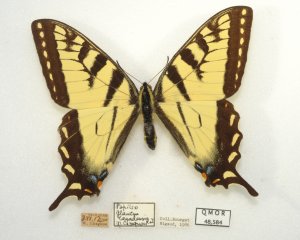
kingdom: Animalia
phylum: Arthropoda
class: Insecta
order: Lepidoptera
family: Papilionidae
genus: Pterourus
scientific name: Pterourus canadensis
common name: Canadian Tiger Swallowtail
